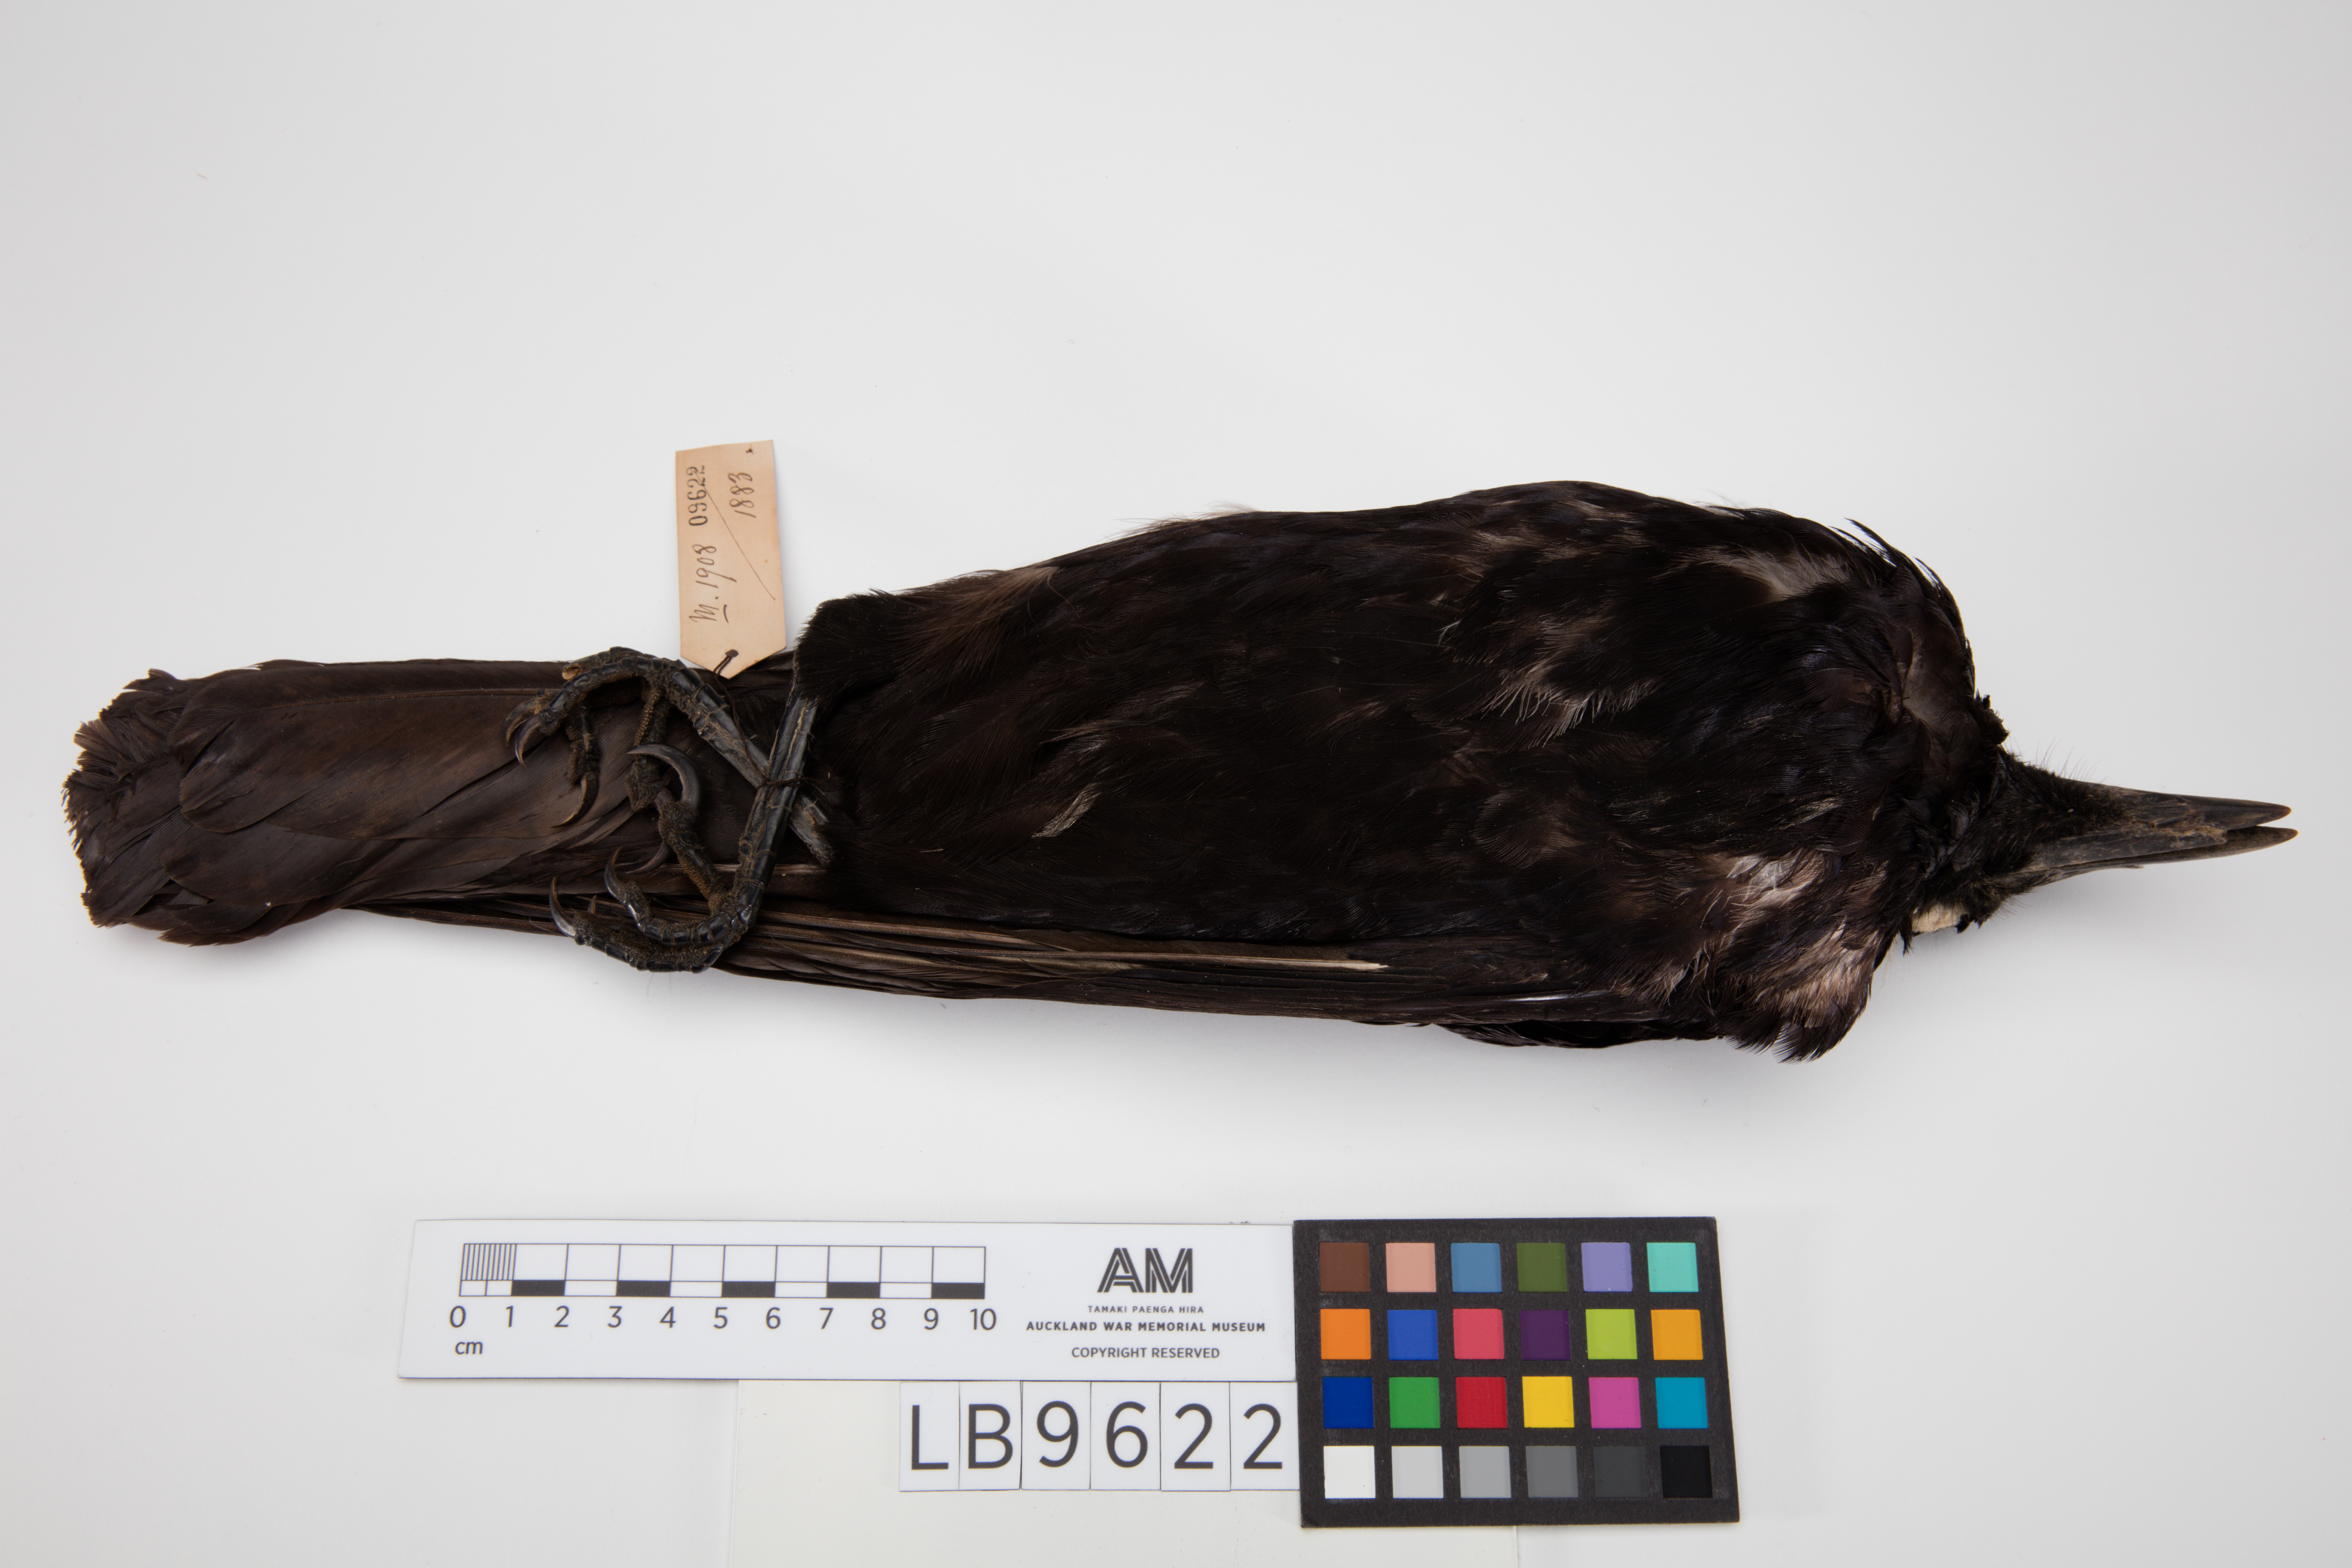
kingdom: Animalia
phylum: Chordata
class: Aves
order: Passeriformes
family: Corvidae
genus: Corvus
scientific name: Corvus corone
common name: Carrion crow
